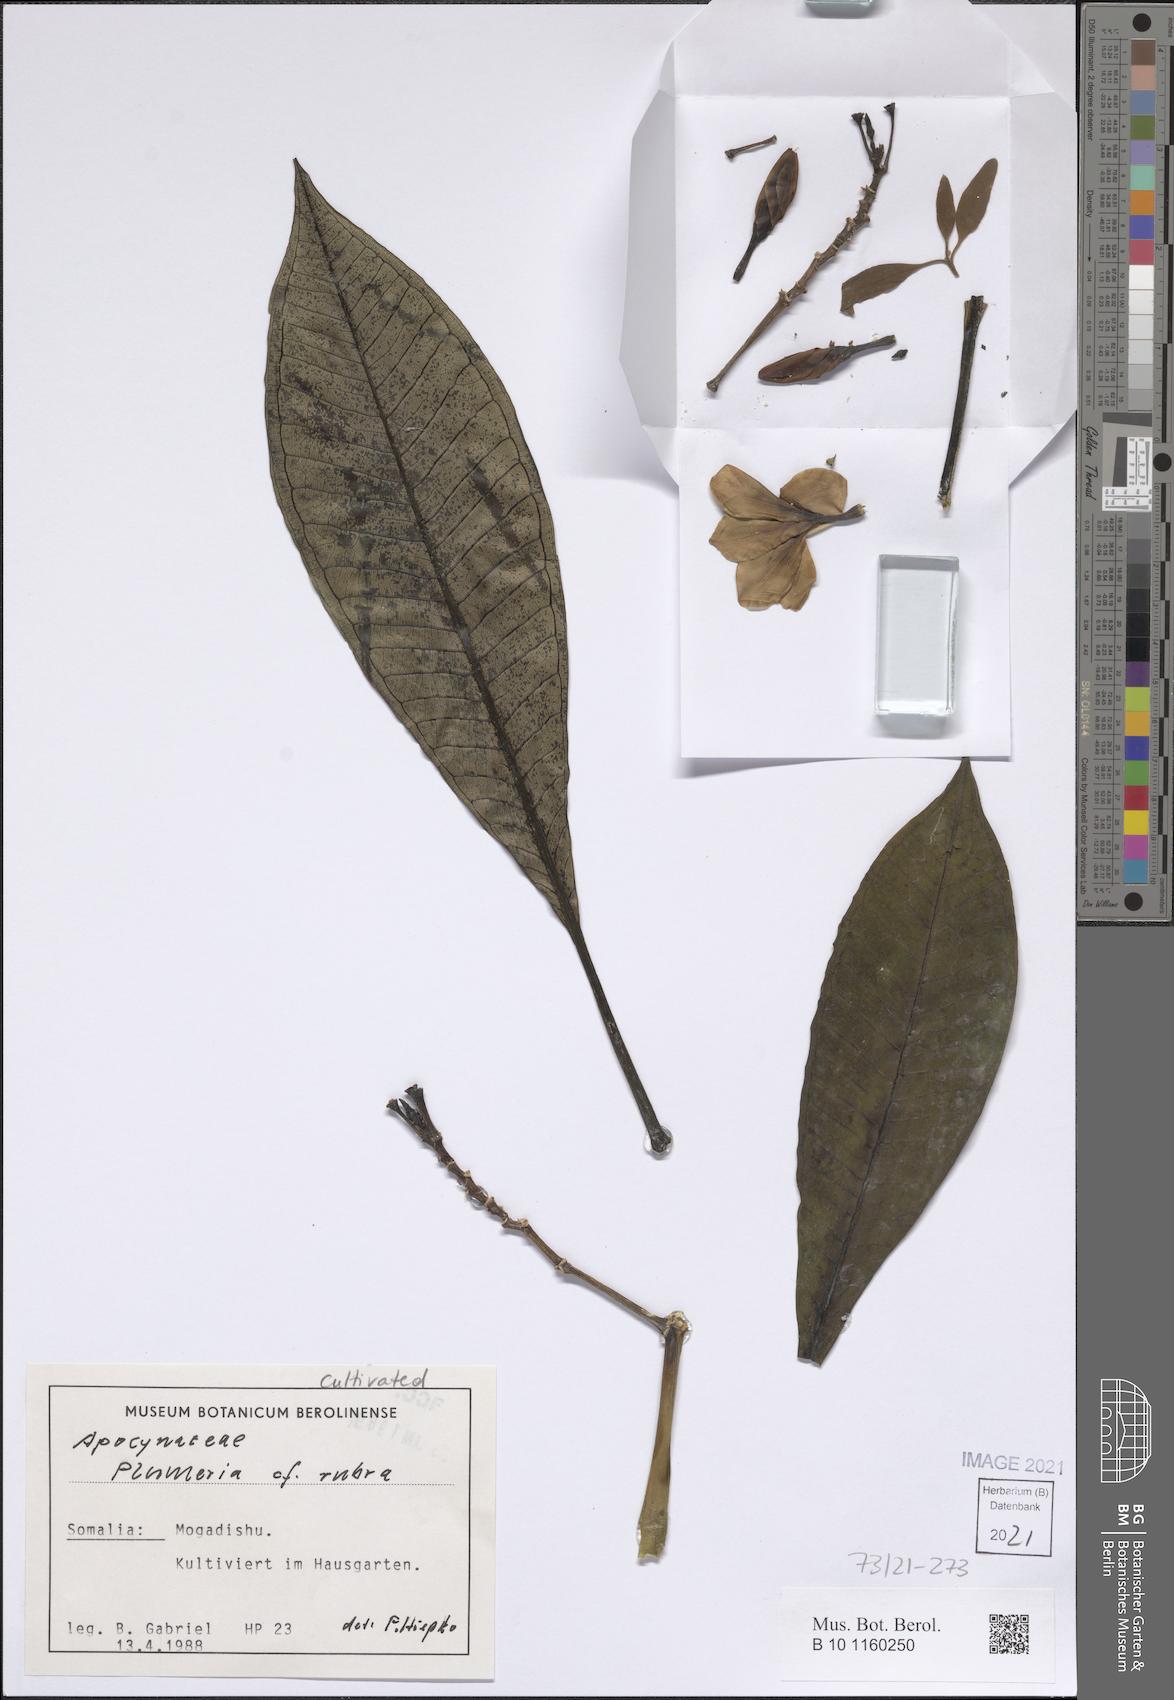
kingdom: Plantae
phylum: Tracheophyta
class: Magnoliopsida
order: Gentianales
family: Apocynaceae
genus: Plumeria
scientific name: Plumeria rubra
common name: Pagoda-tree
